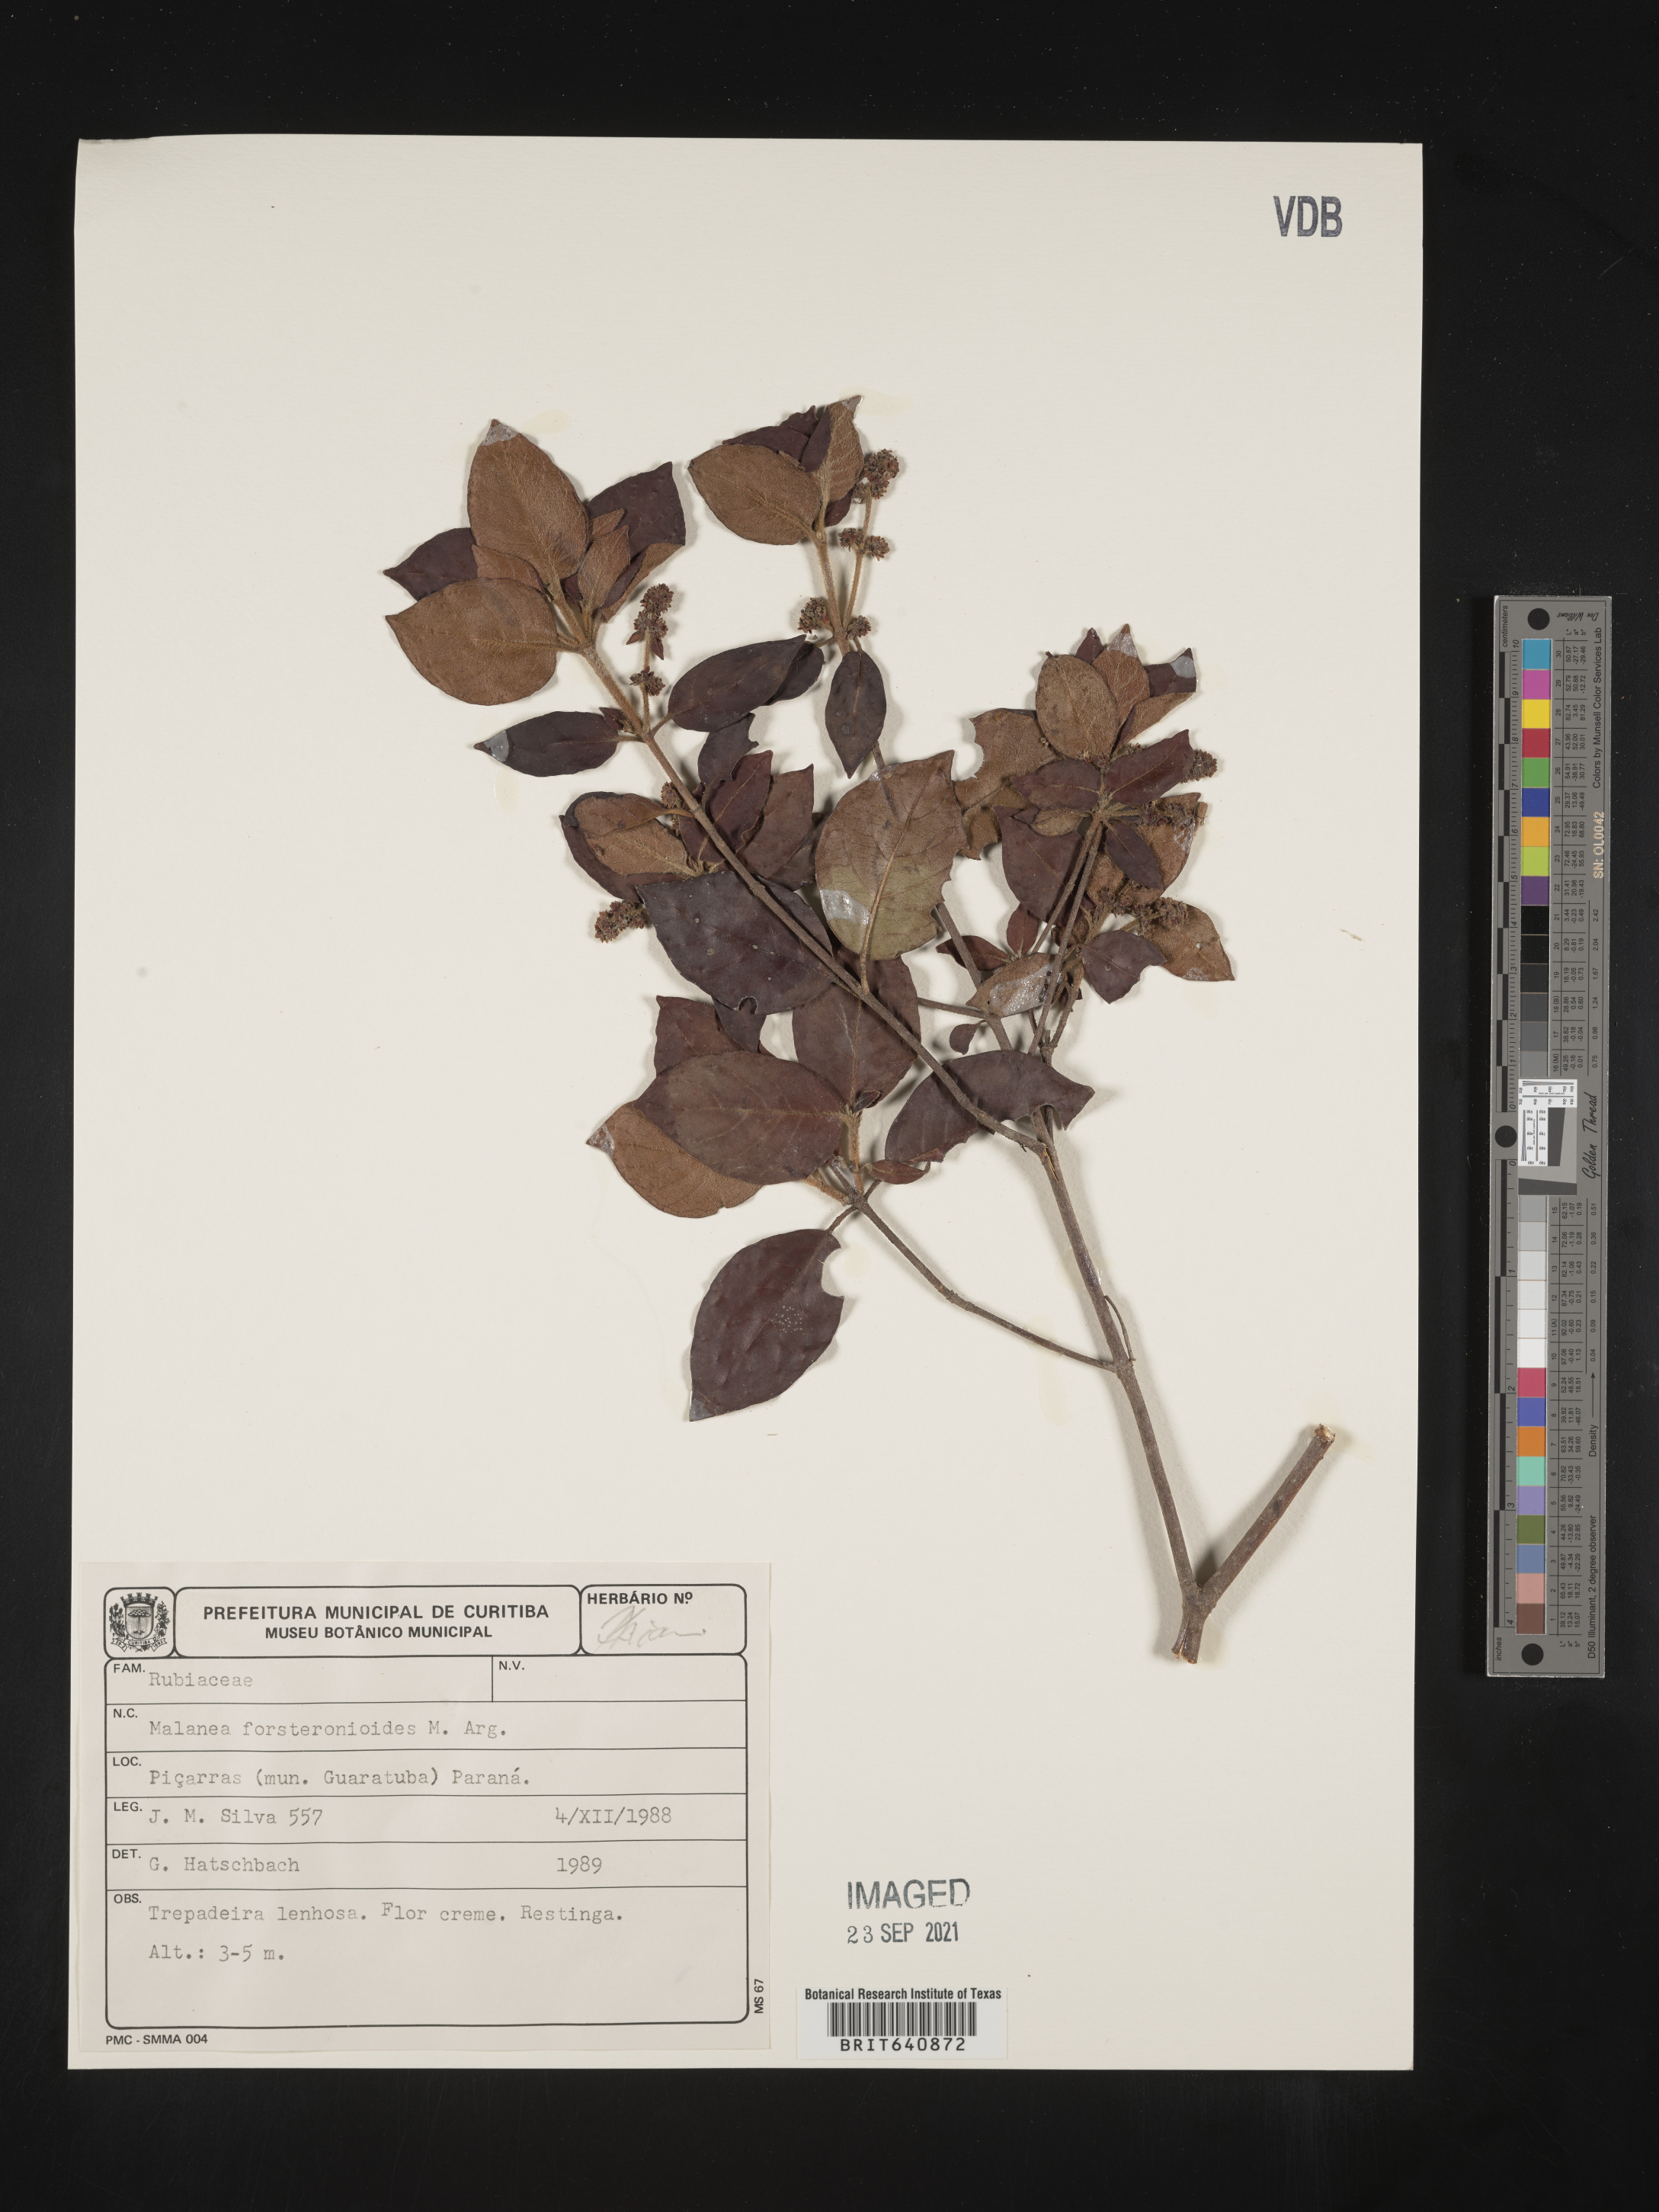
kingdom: Plantae
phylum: Tracheophyta
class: Magnoliopsida
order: Gentianales
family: Rubiaceae
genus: Malanea
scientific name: Malanea
